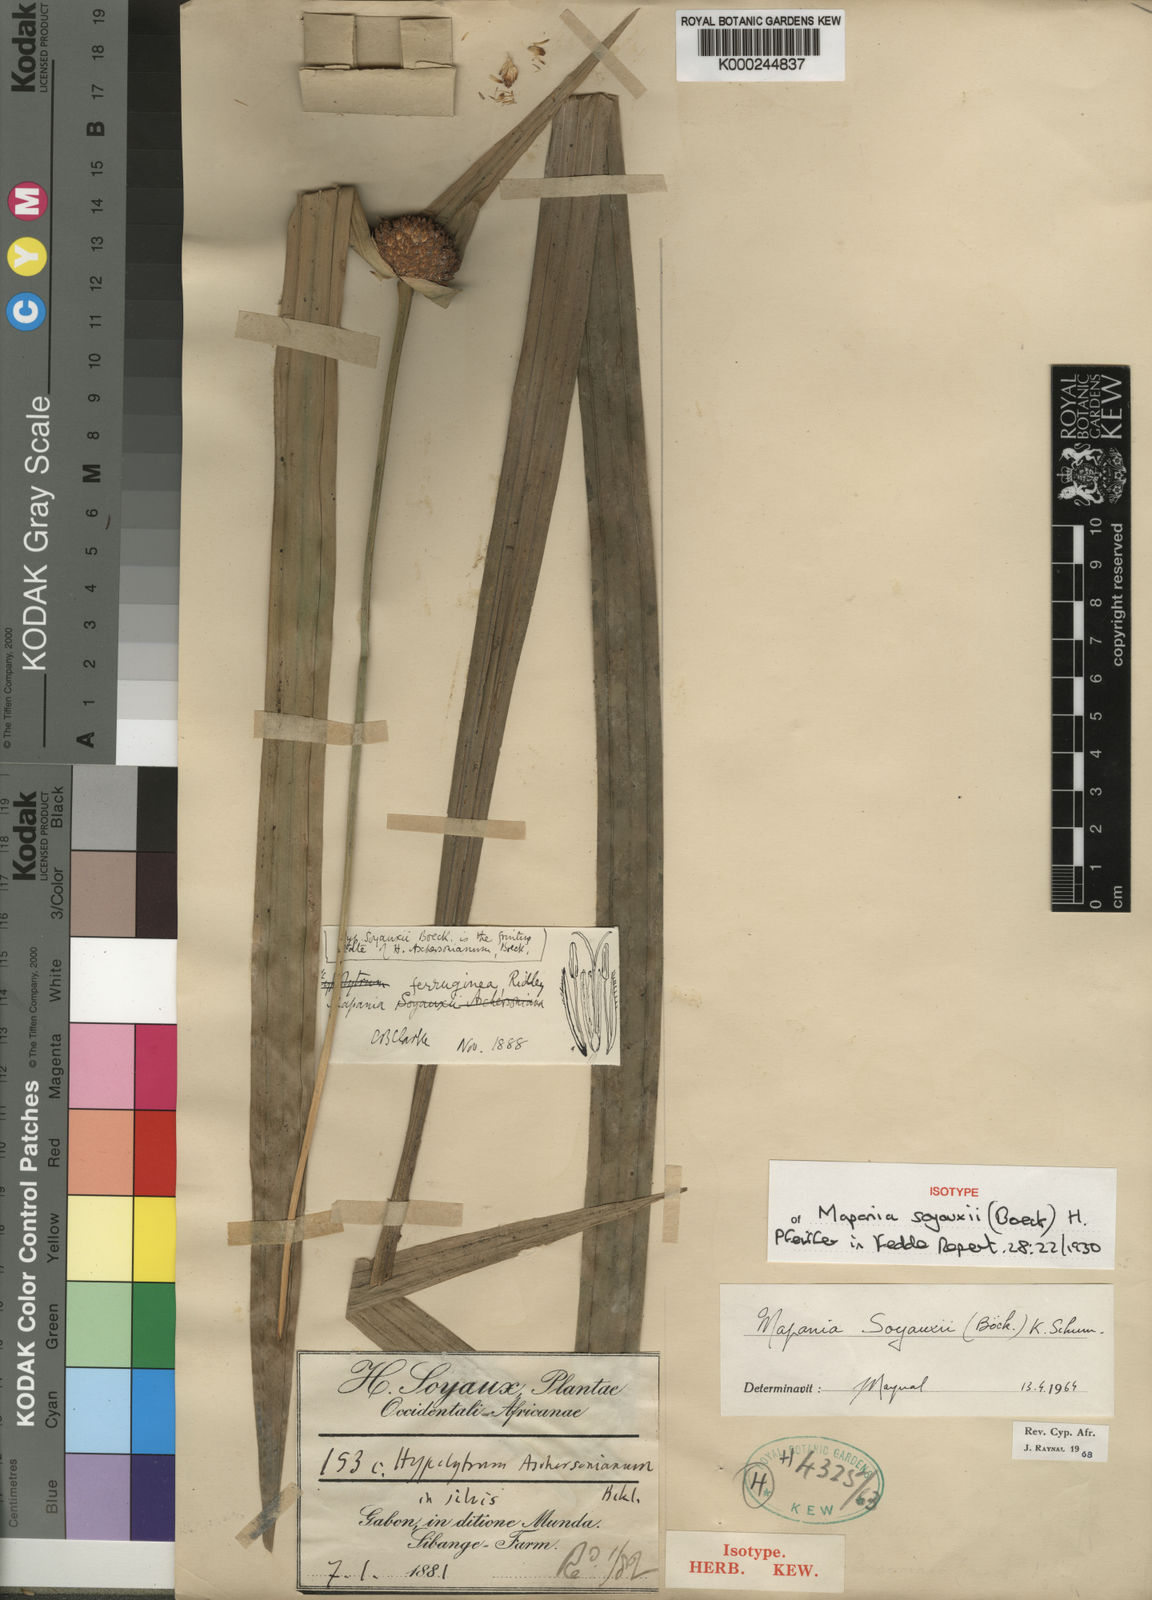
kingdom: Plantae
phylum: Tracheophyta
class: Liliopsida
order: Poales
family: Cyperaceae
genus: Mapania
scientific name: Mapania soyauxii
